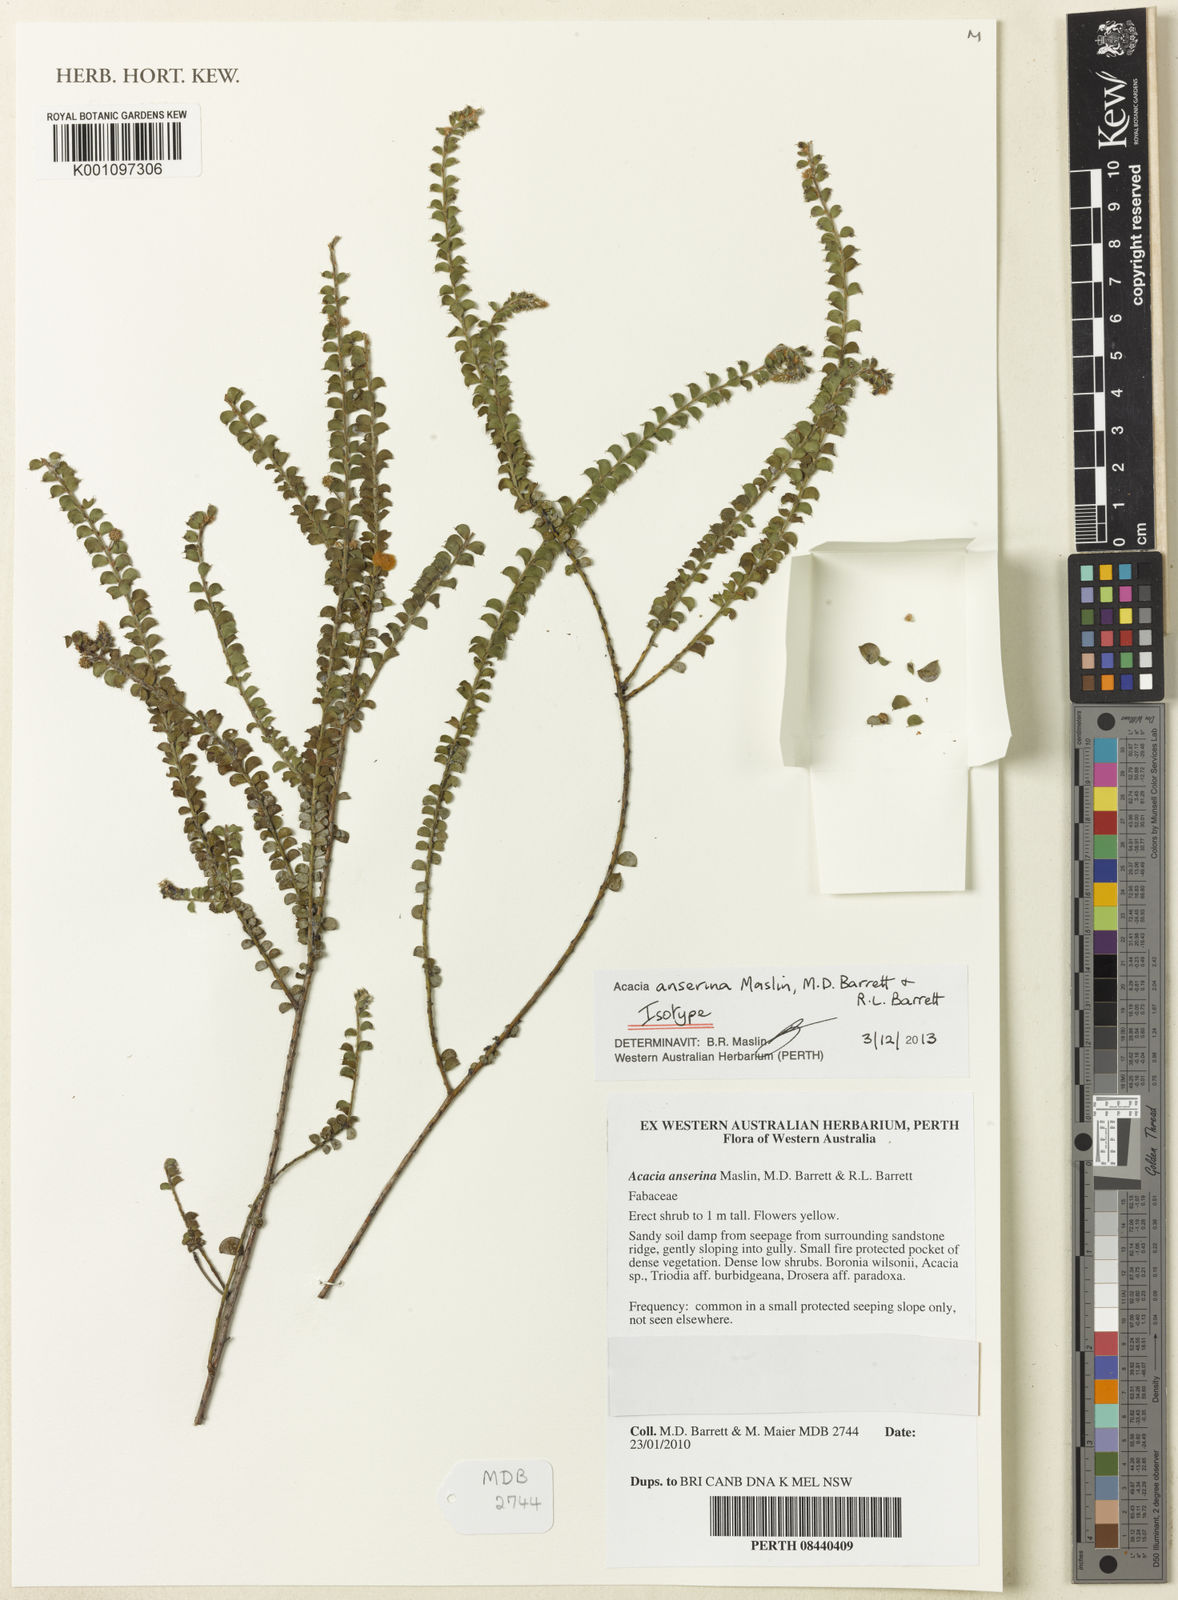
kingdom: Plantae
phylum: Tracheophyta
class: Magnoliopsida
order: Fabales
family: Fabaceae
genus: Acacia
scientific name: Acacia anserina
